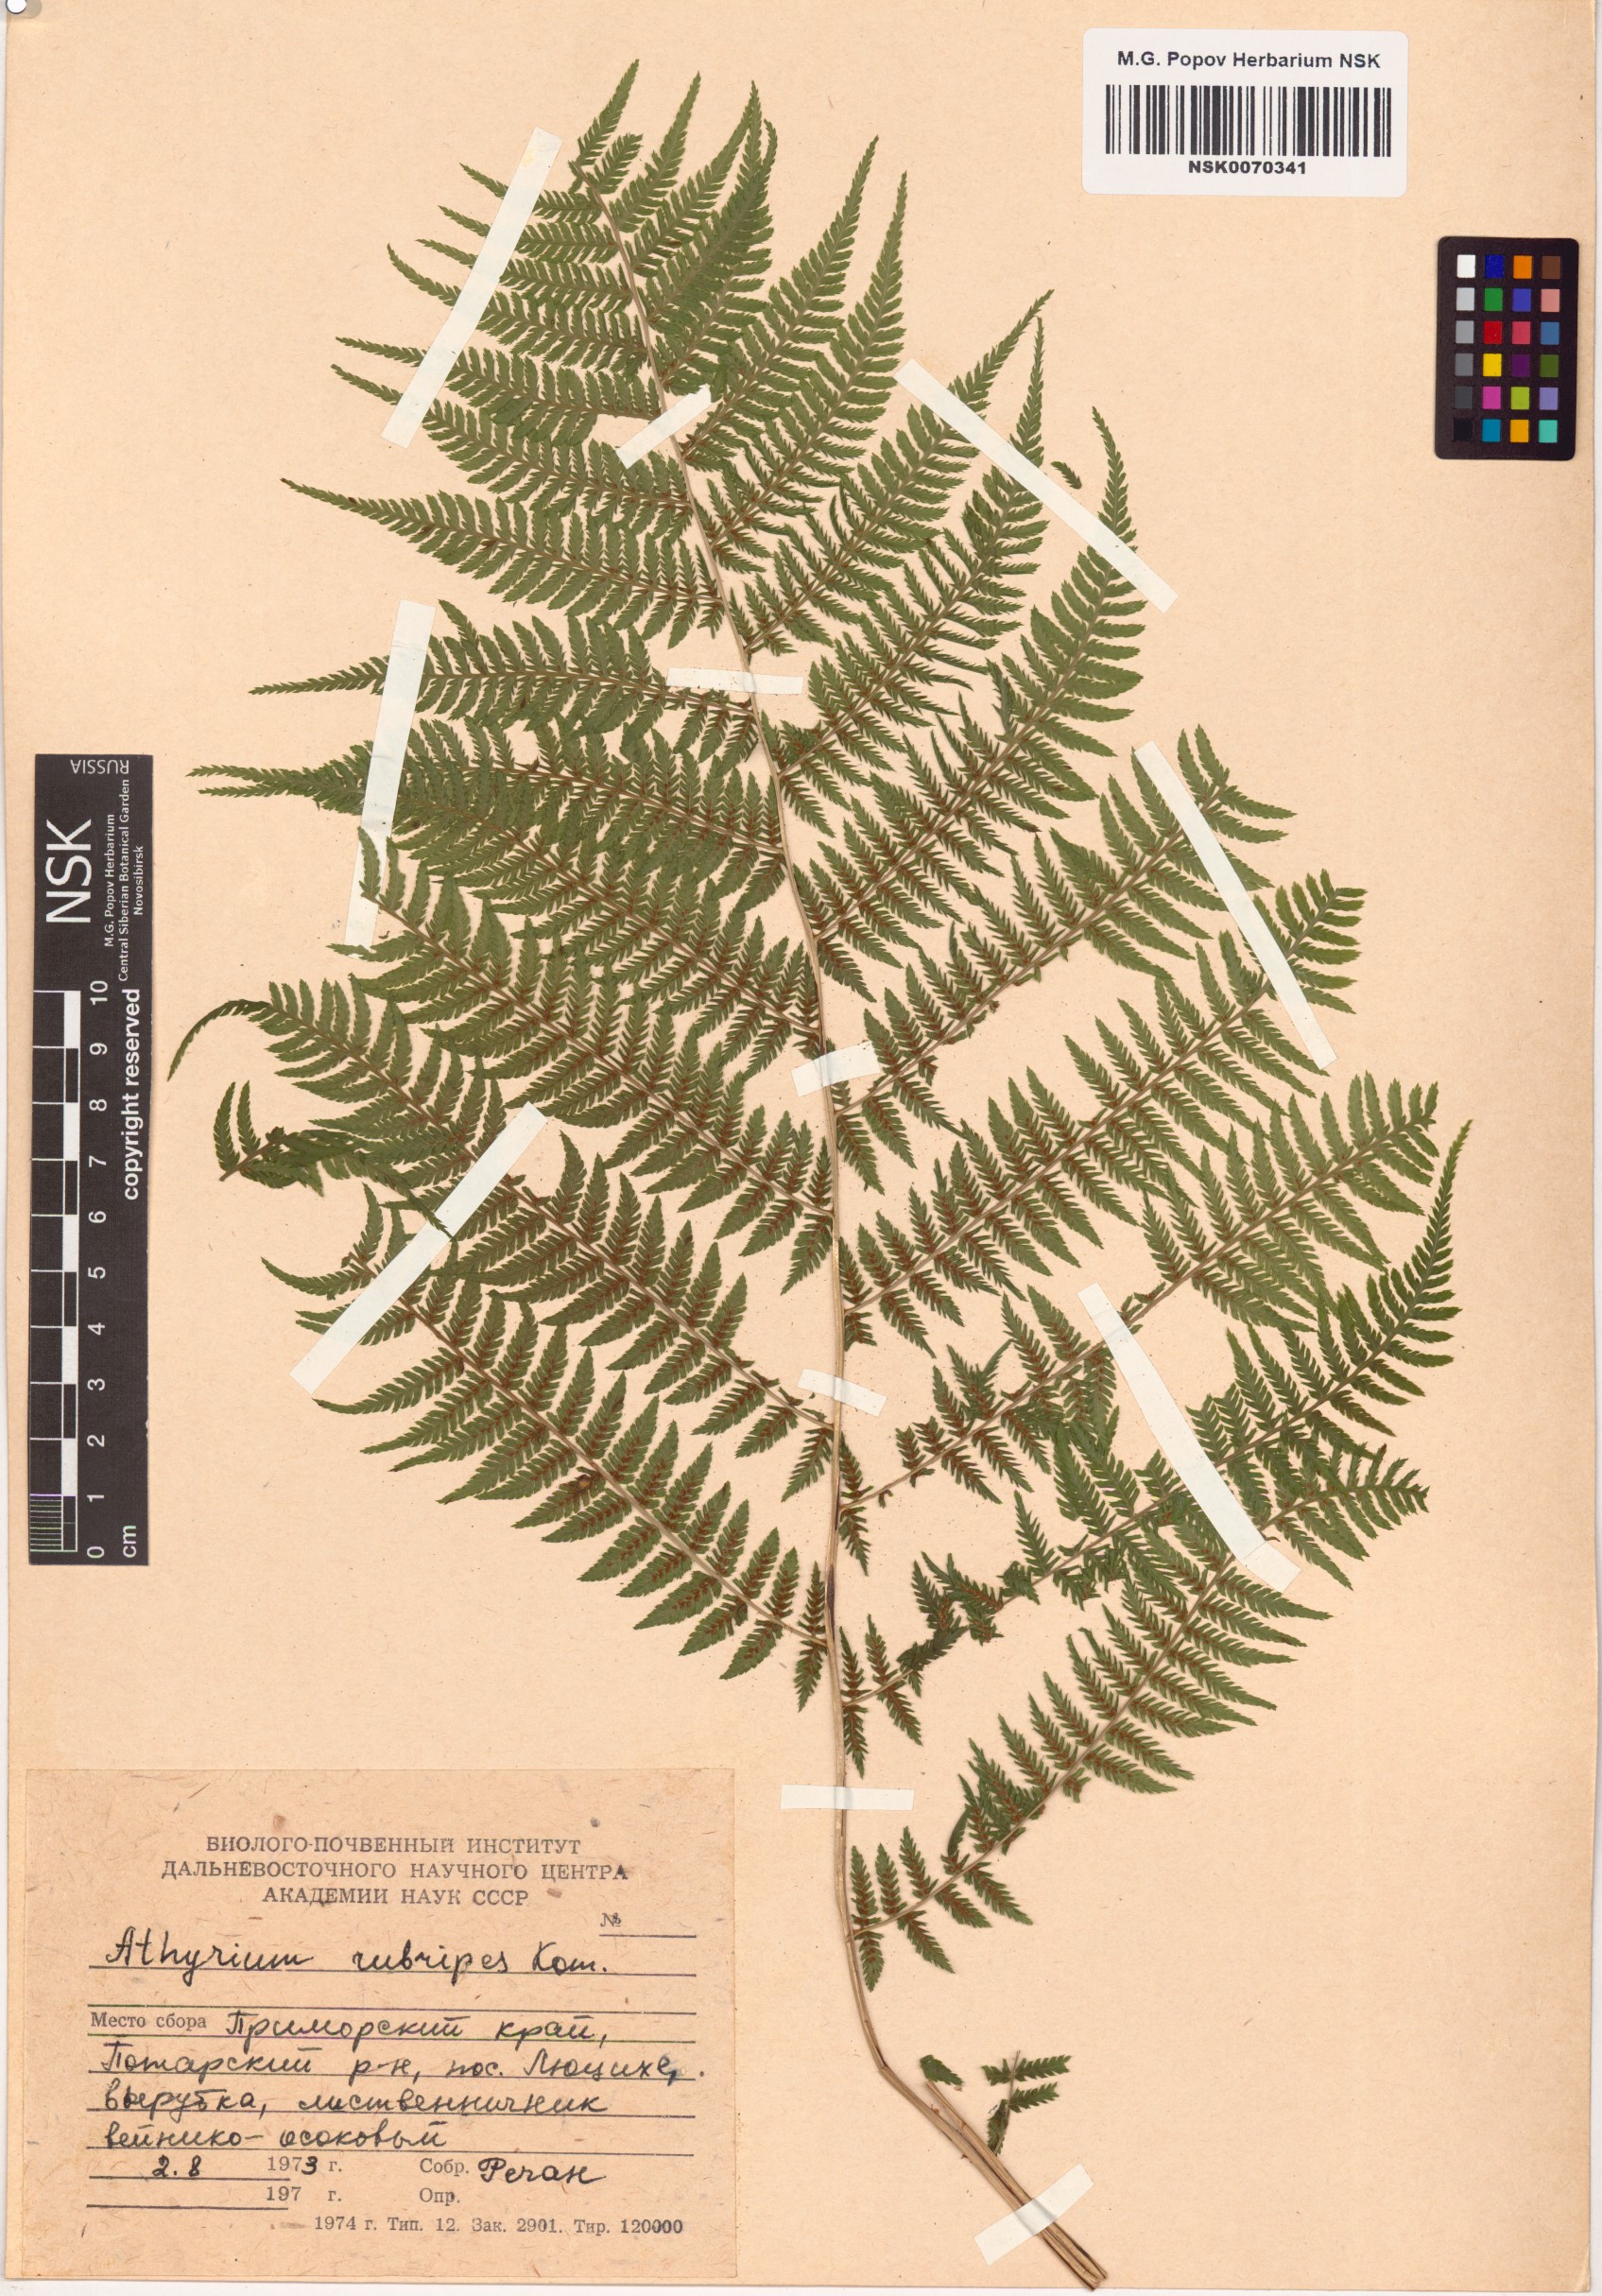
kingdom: Plantae
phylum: Tracheophyta
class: Polypodiopsida
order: Polypodiales
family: Athyriaceae
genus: Athyrium
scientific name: Athyrium rubripes
